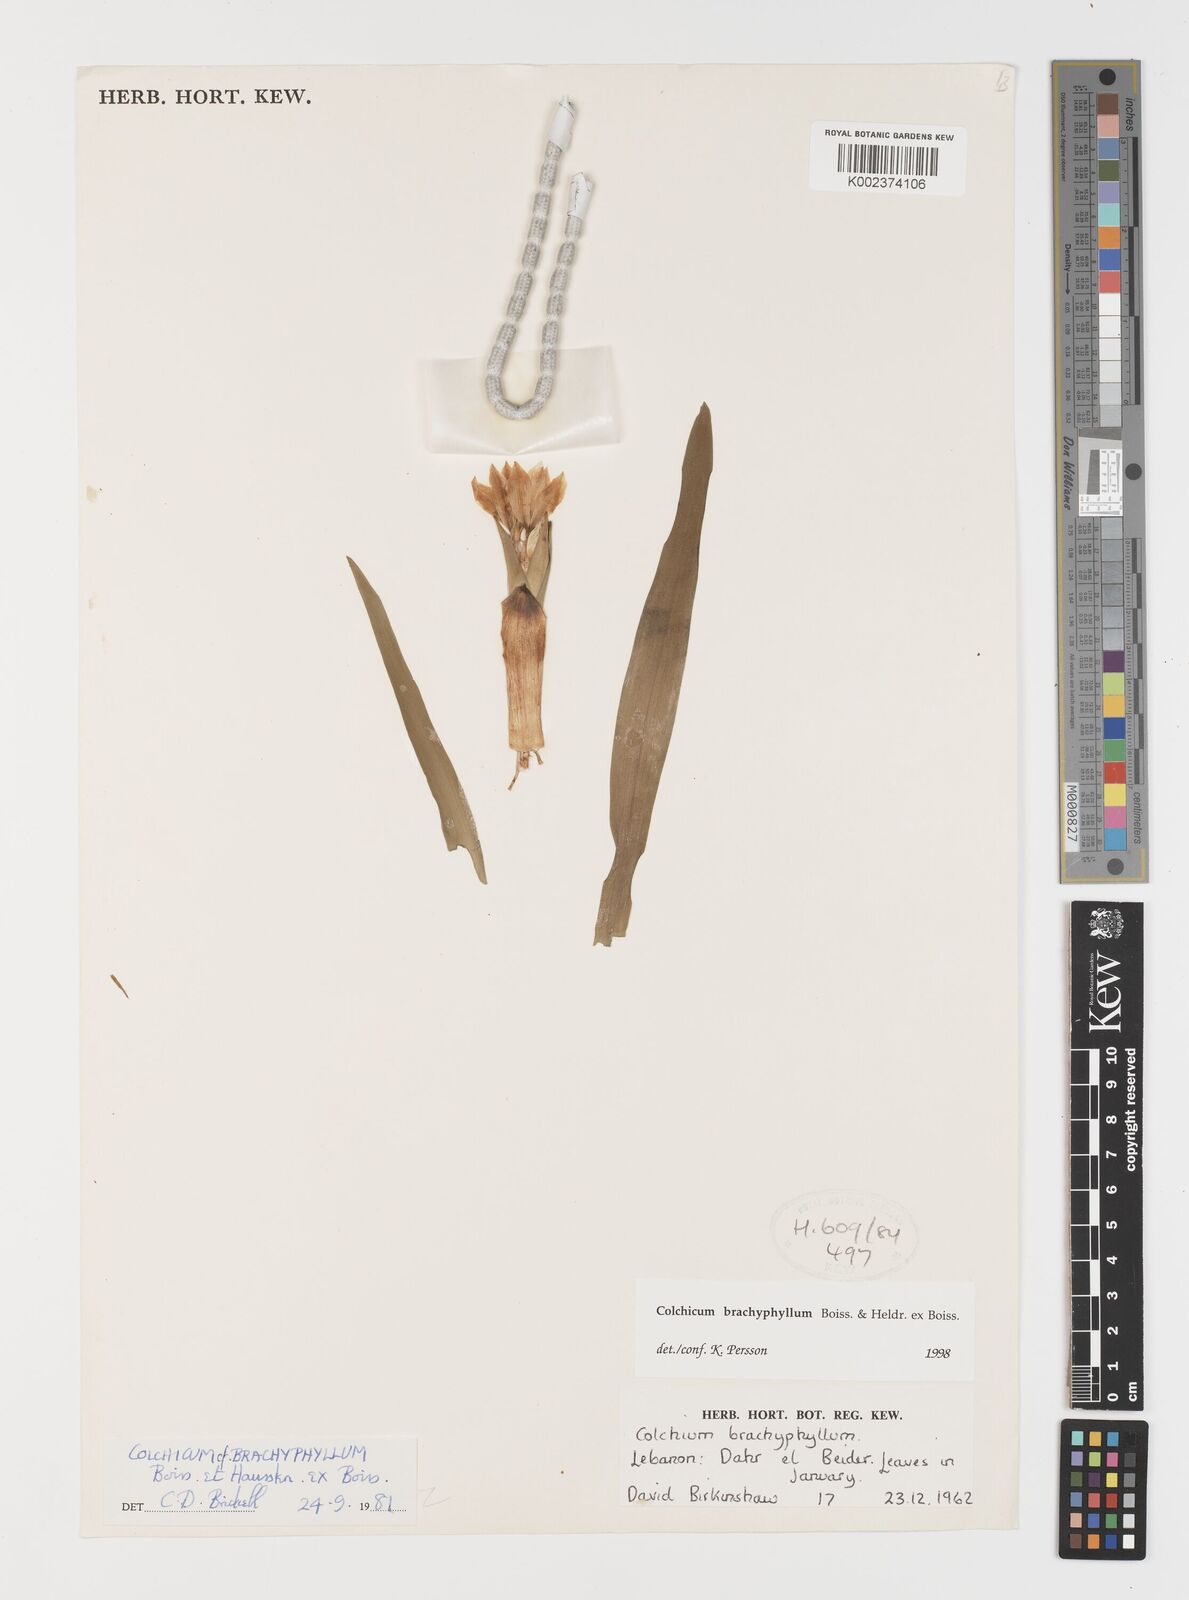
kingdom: Plantae
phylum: Tracheophyta
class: Liliopsida
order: Liliales
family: Colchicaceae
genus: Colchicum
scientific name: Colchicum szovitsii
